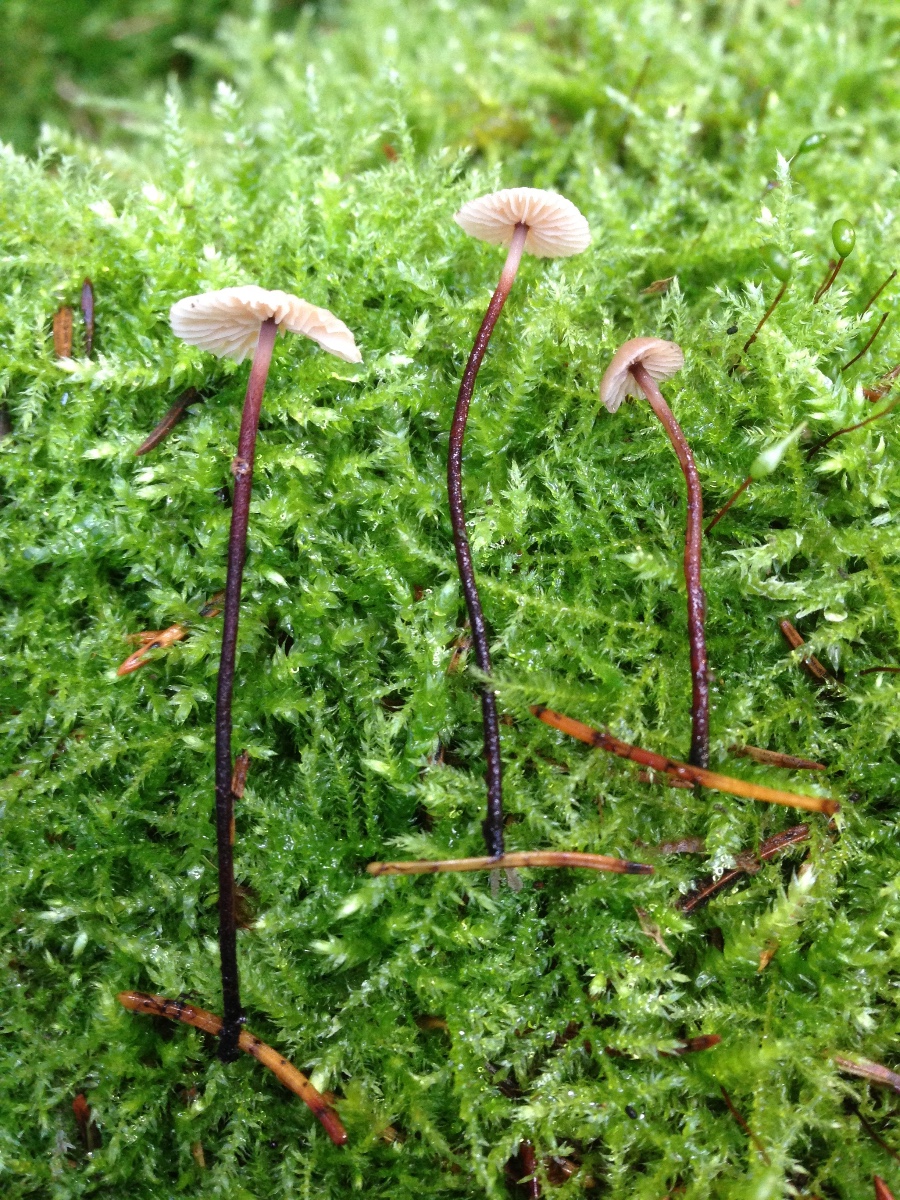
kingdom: Fungi
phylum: Basidiomycota
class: Agaricomycetes
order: Agaricales
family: Omphalotaceae
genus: Paragymnopus
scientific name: Paragymnopus perforans
